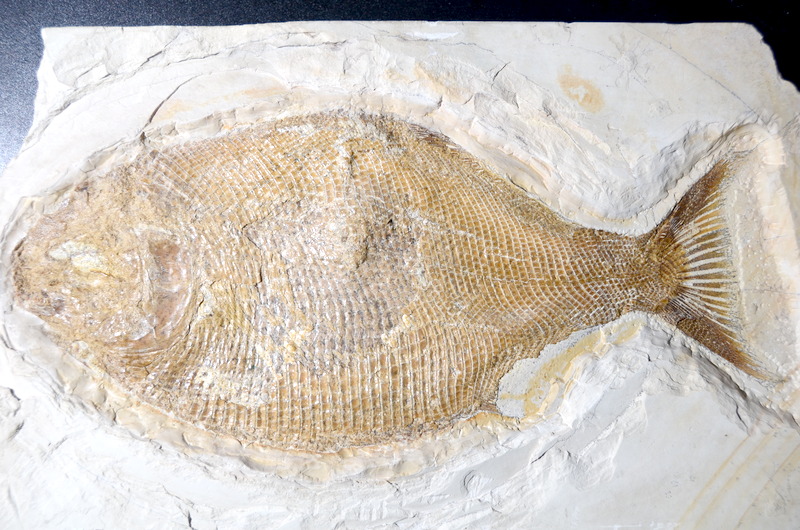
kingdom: Animalia
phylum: Chordata
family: Dapediidae
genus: Heterostrophus
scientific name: Heterostrophus latus
